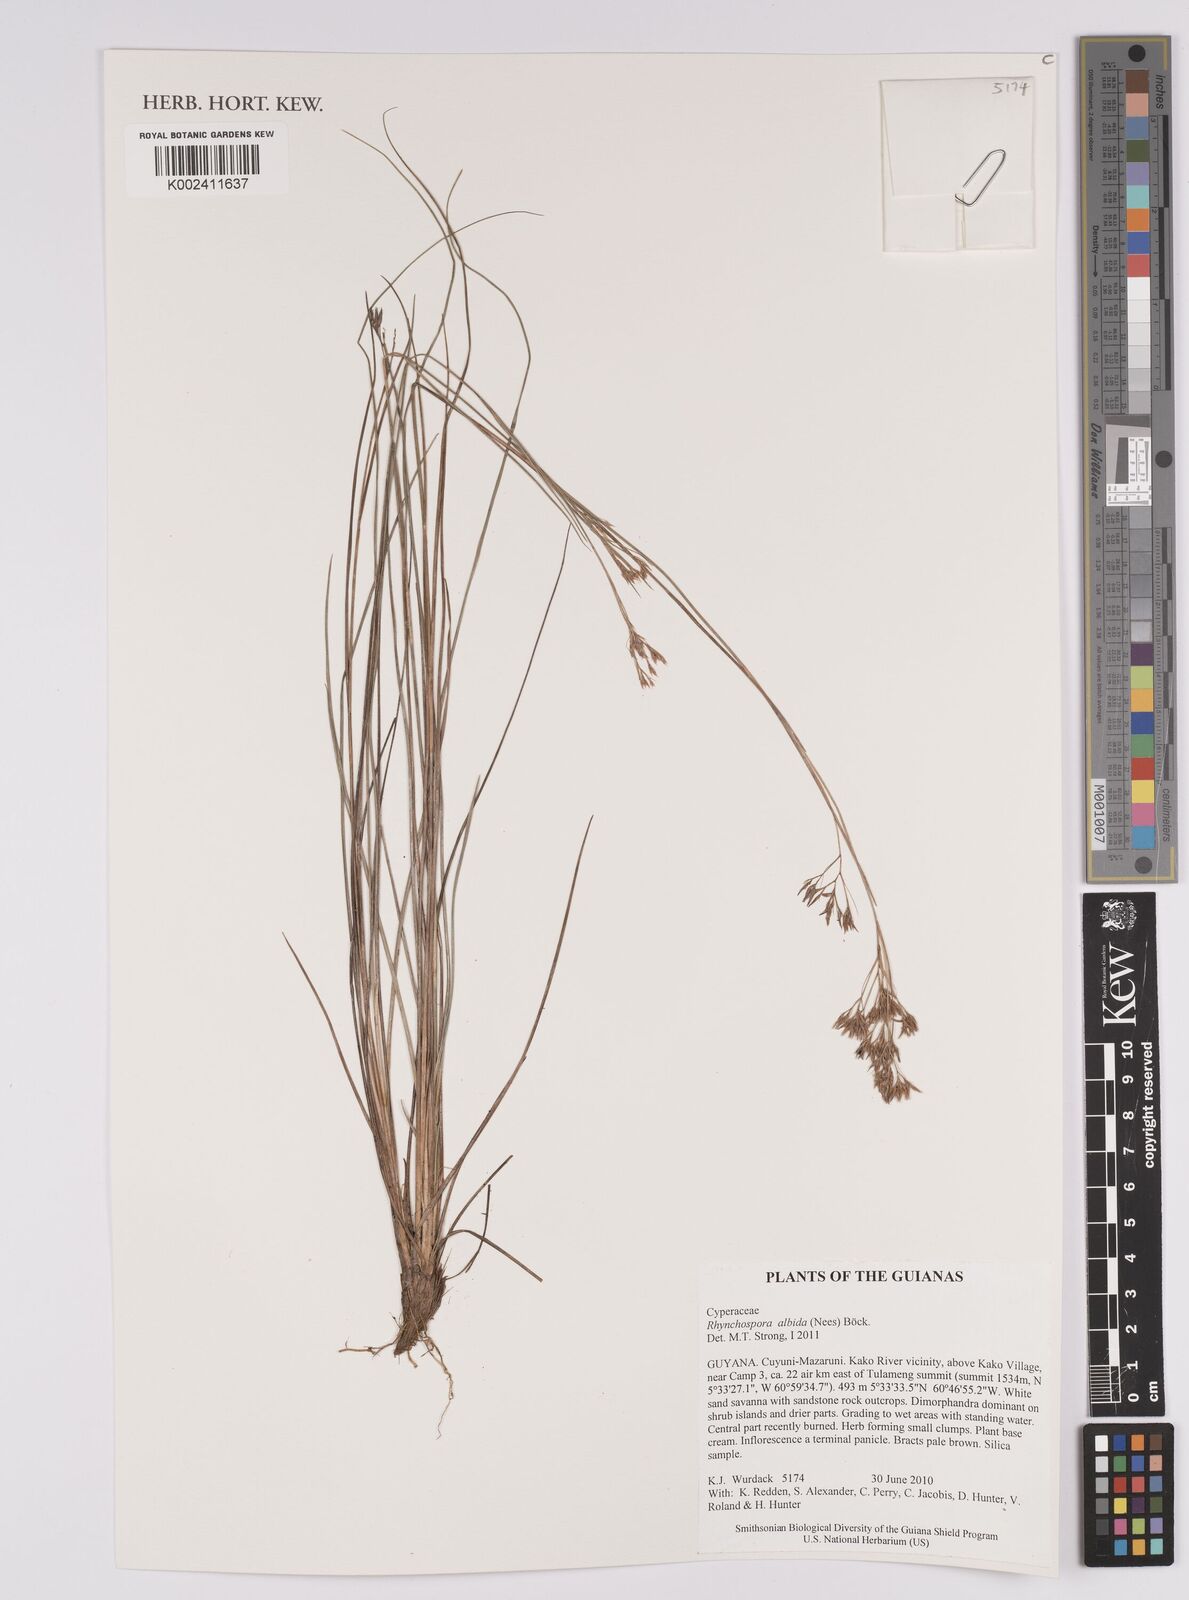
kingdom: Plantae
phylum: Tracheophyta
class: Liliopsida
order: Poales
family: Cyperaceae
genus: Rhynchospora
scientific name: Rhynchospora albida
